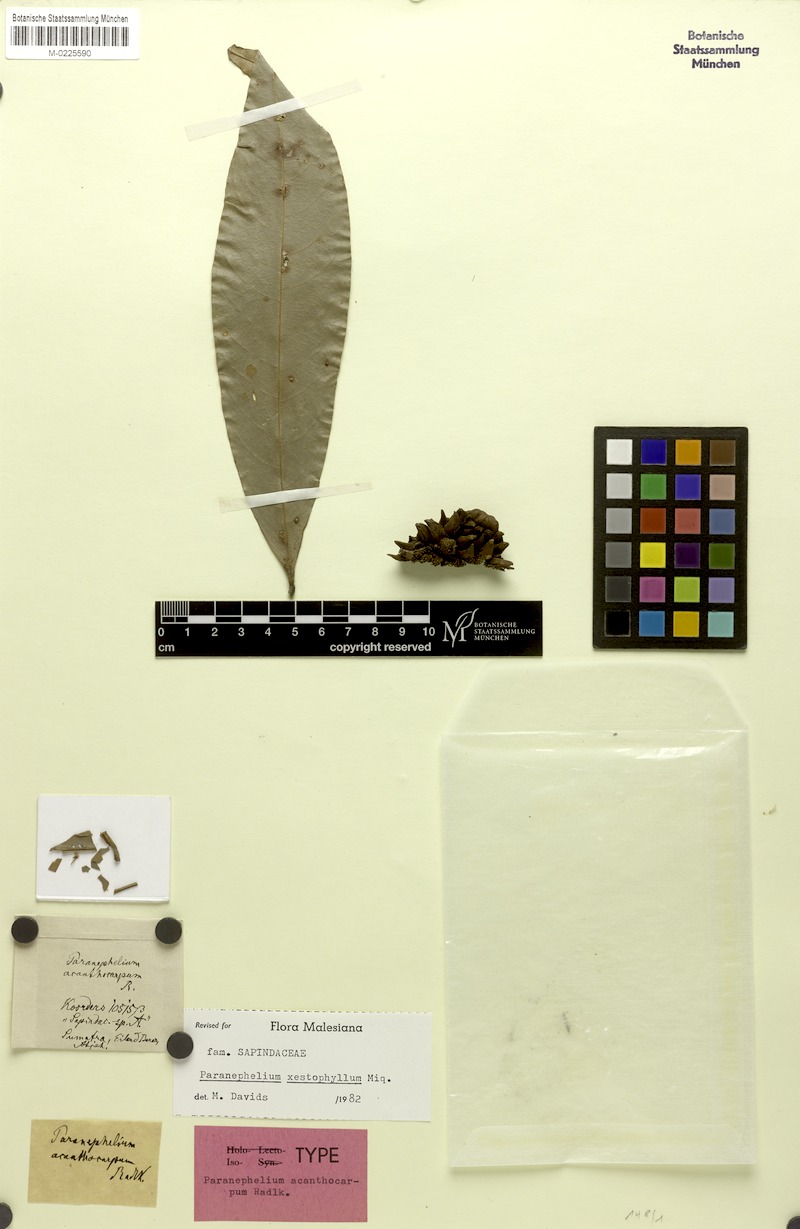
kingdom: Plantae
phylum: Tracheophyta
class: Magnoliopsida
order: Sapindales
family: Sapindaceae
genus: Paranephelium
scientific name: Paranephelium xestophyllum
